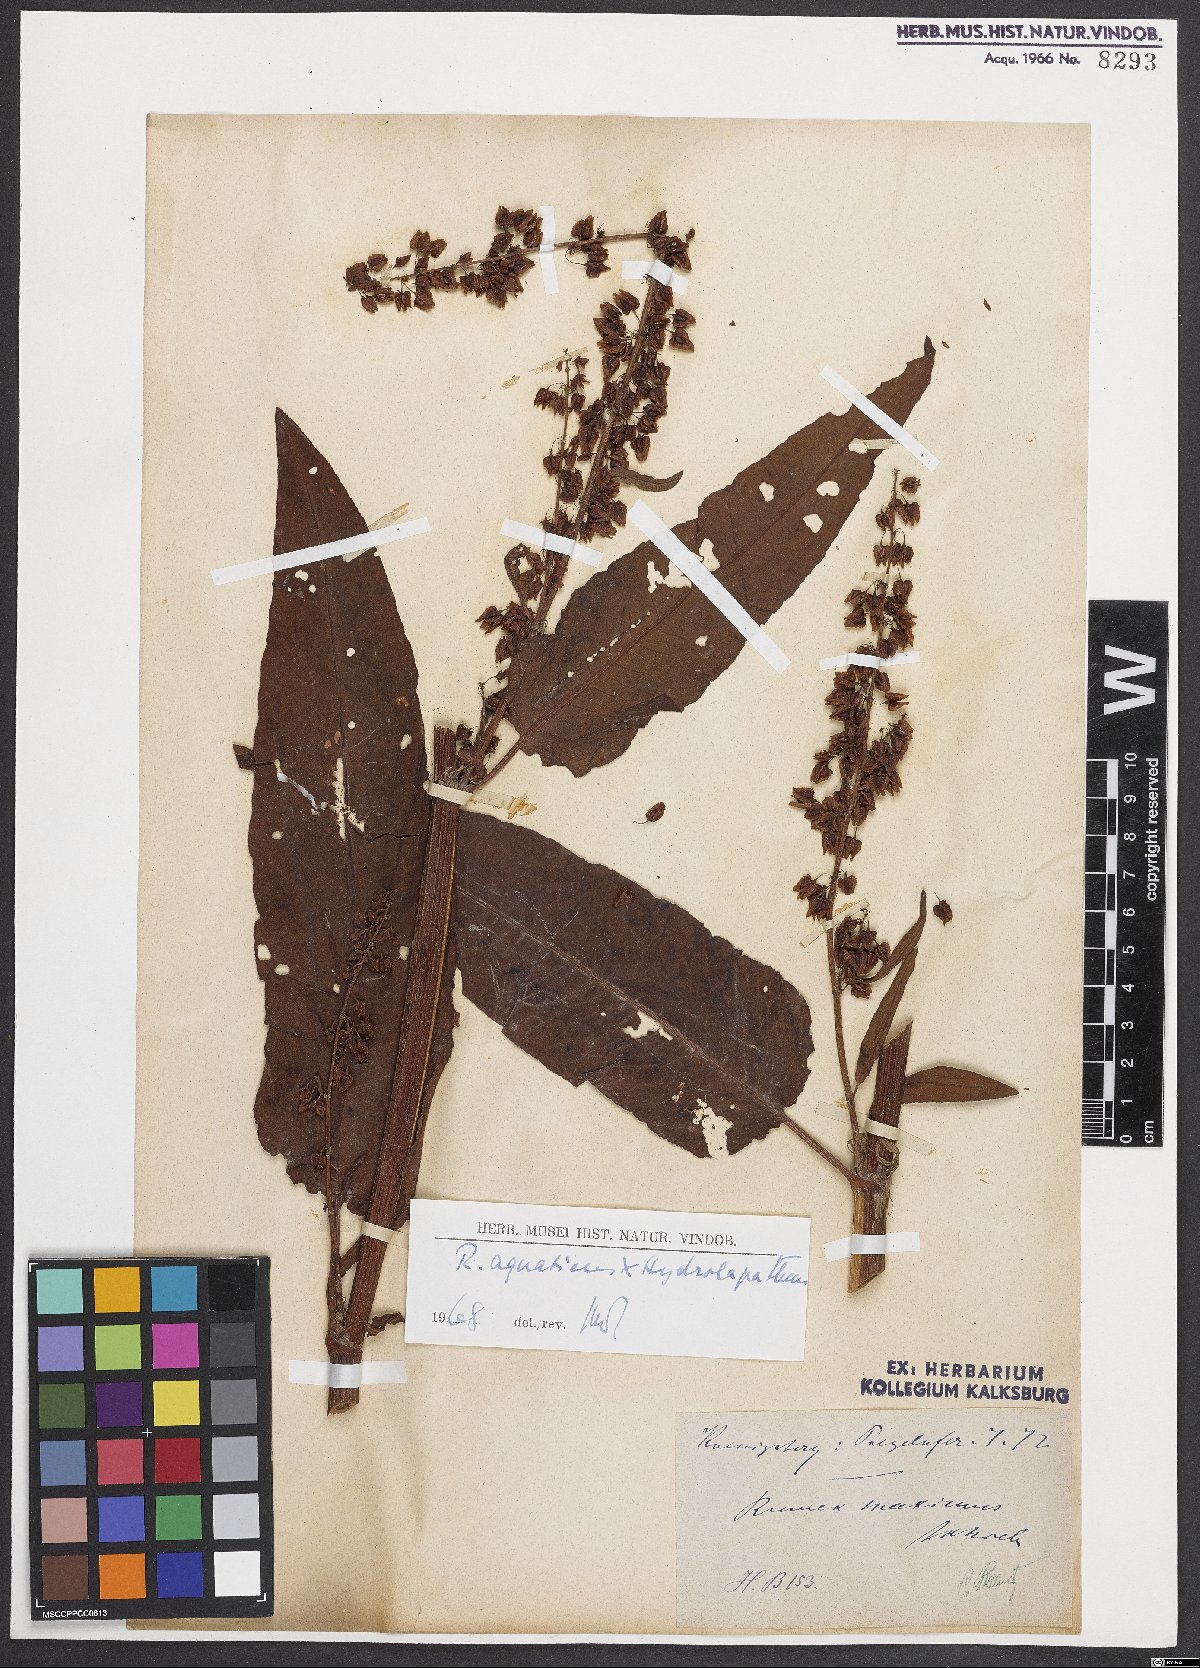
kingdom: Plantae
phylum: Tracheophyta
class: Magnoliopsida
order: Caryophyllales
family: Polygonaceae
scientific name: Polygonaceae
